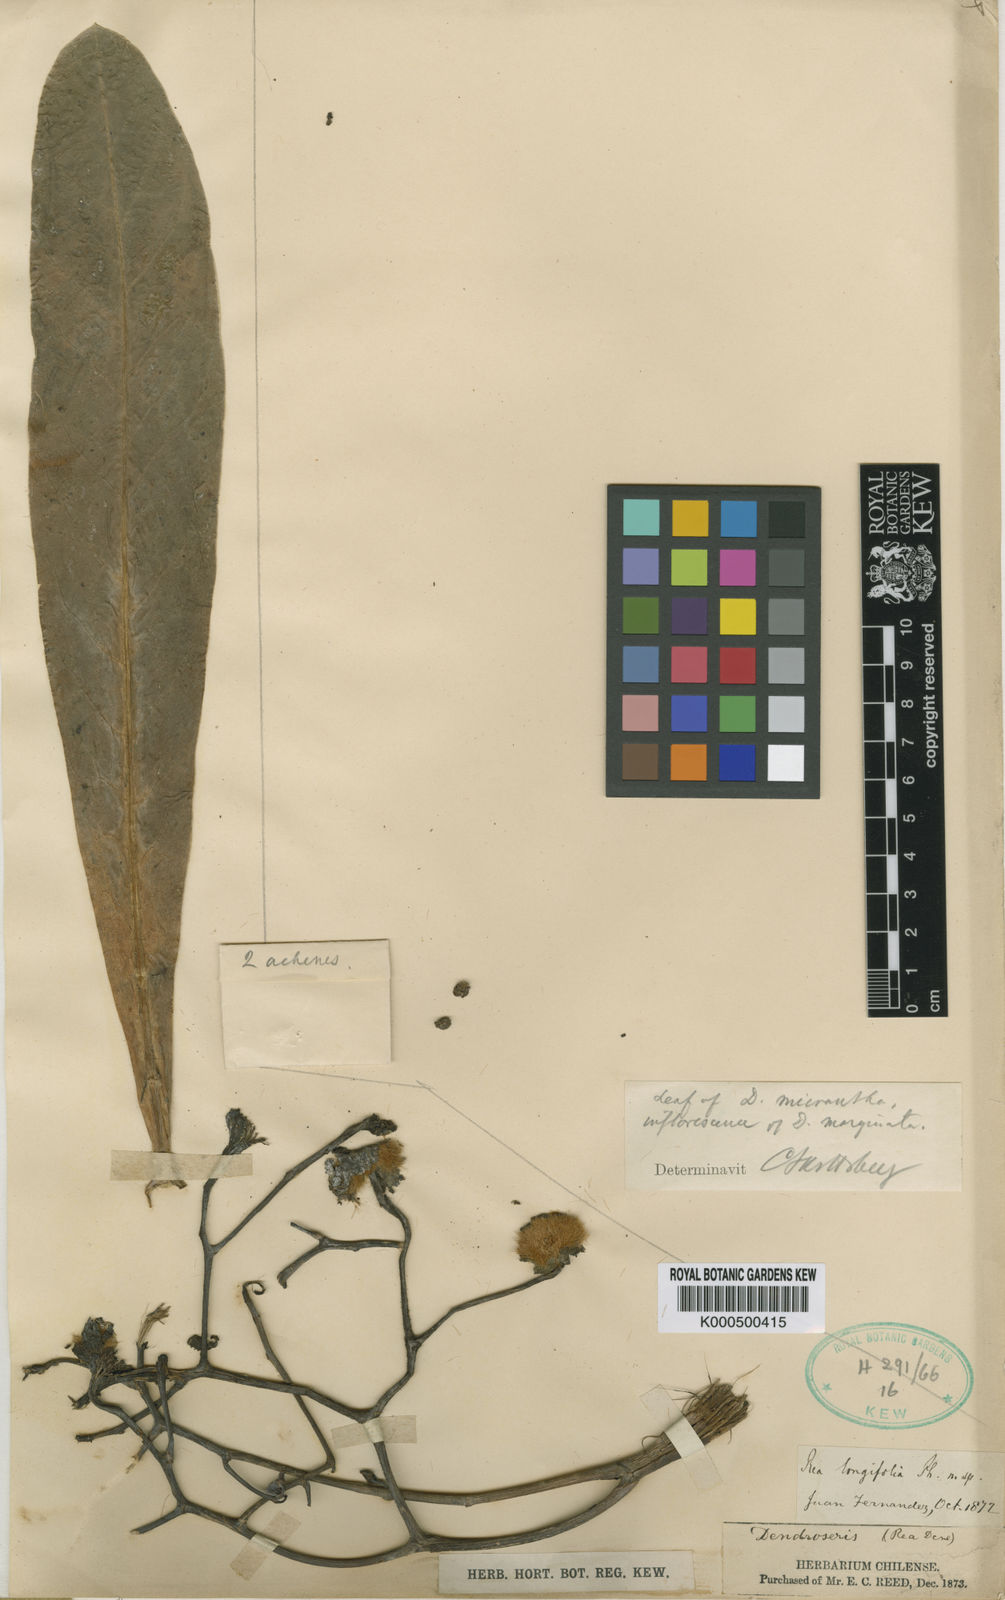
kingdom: Plantae
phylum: Tracheophyta
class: Magnoliopsida
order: Asterales
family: Asteraceae
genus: Sonchus
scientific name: Sonchus
